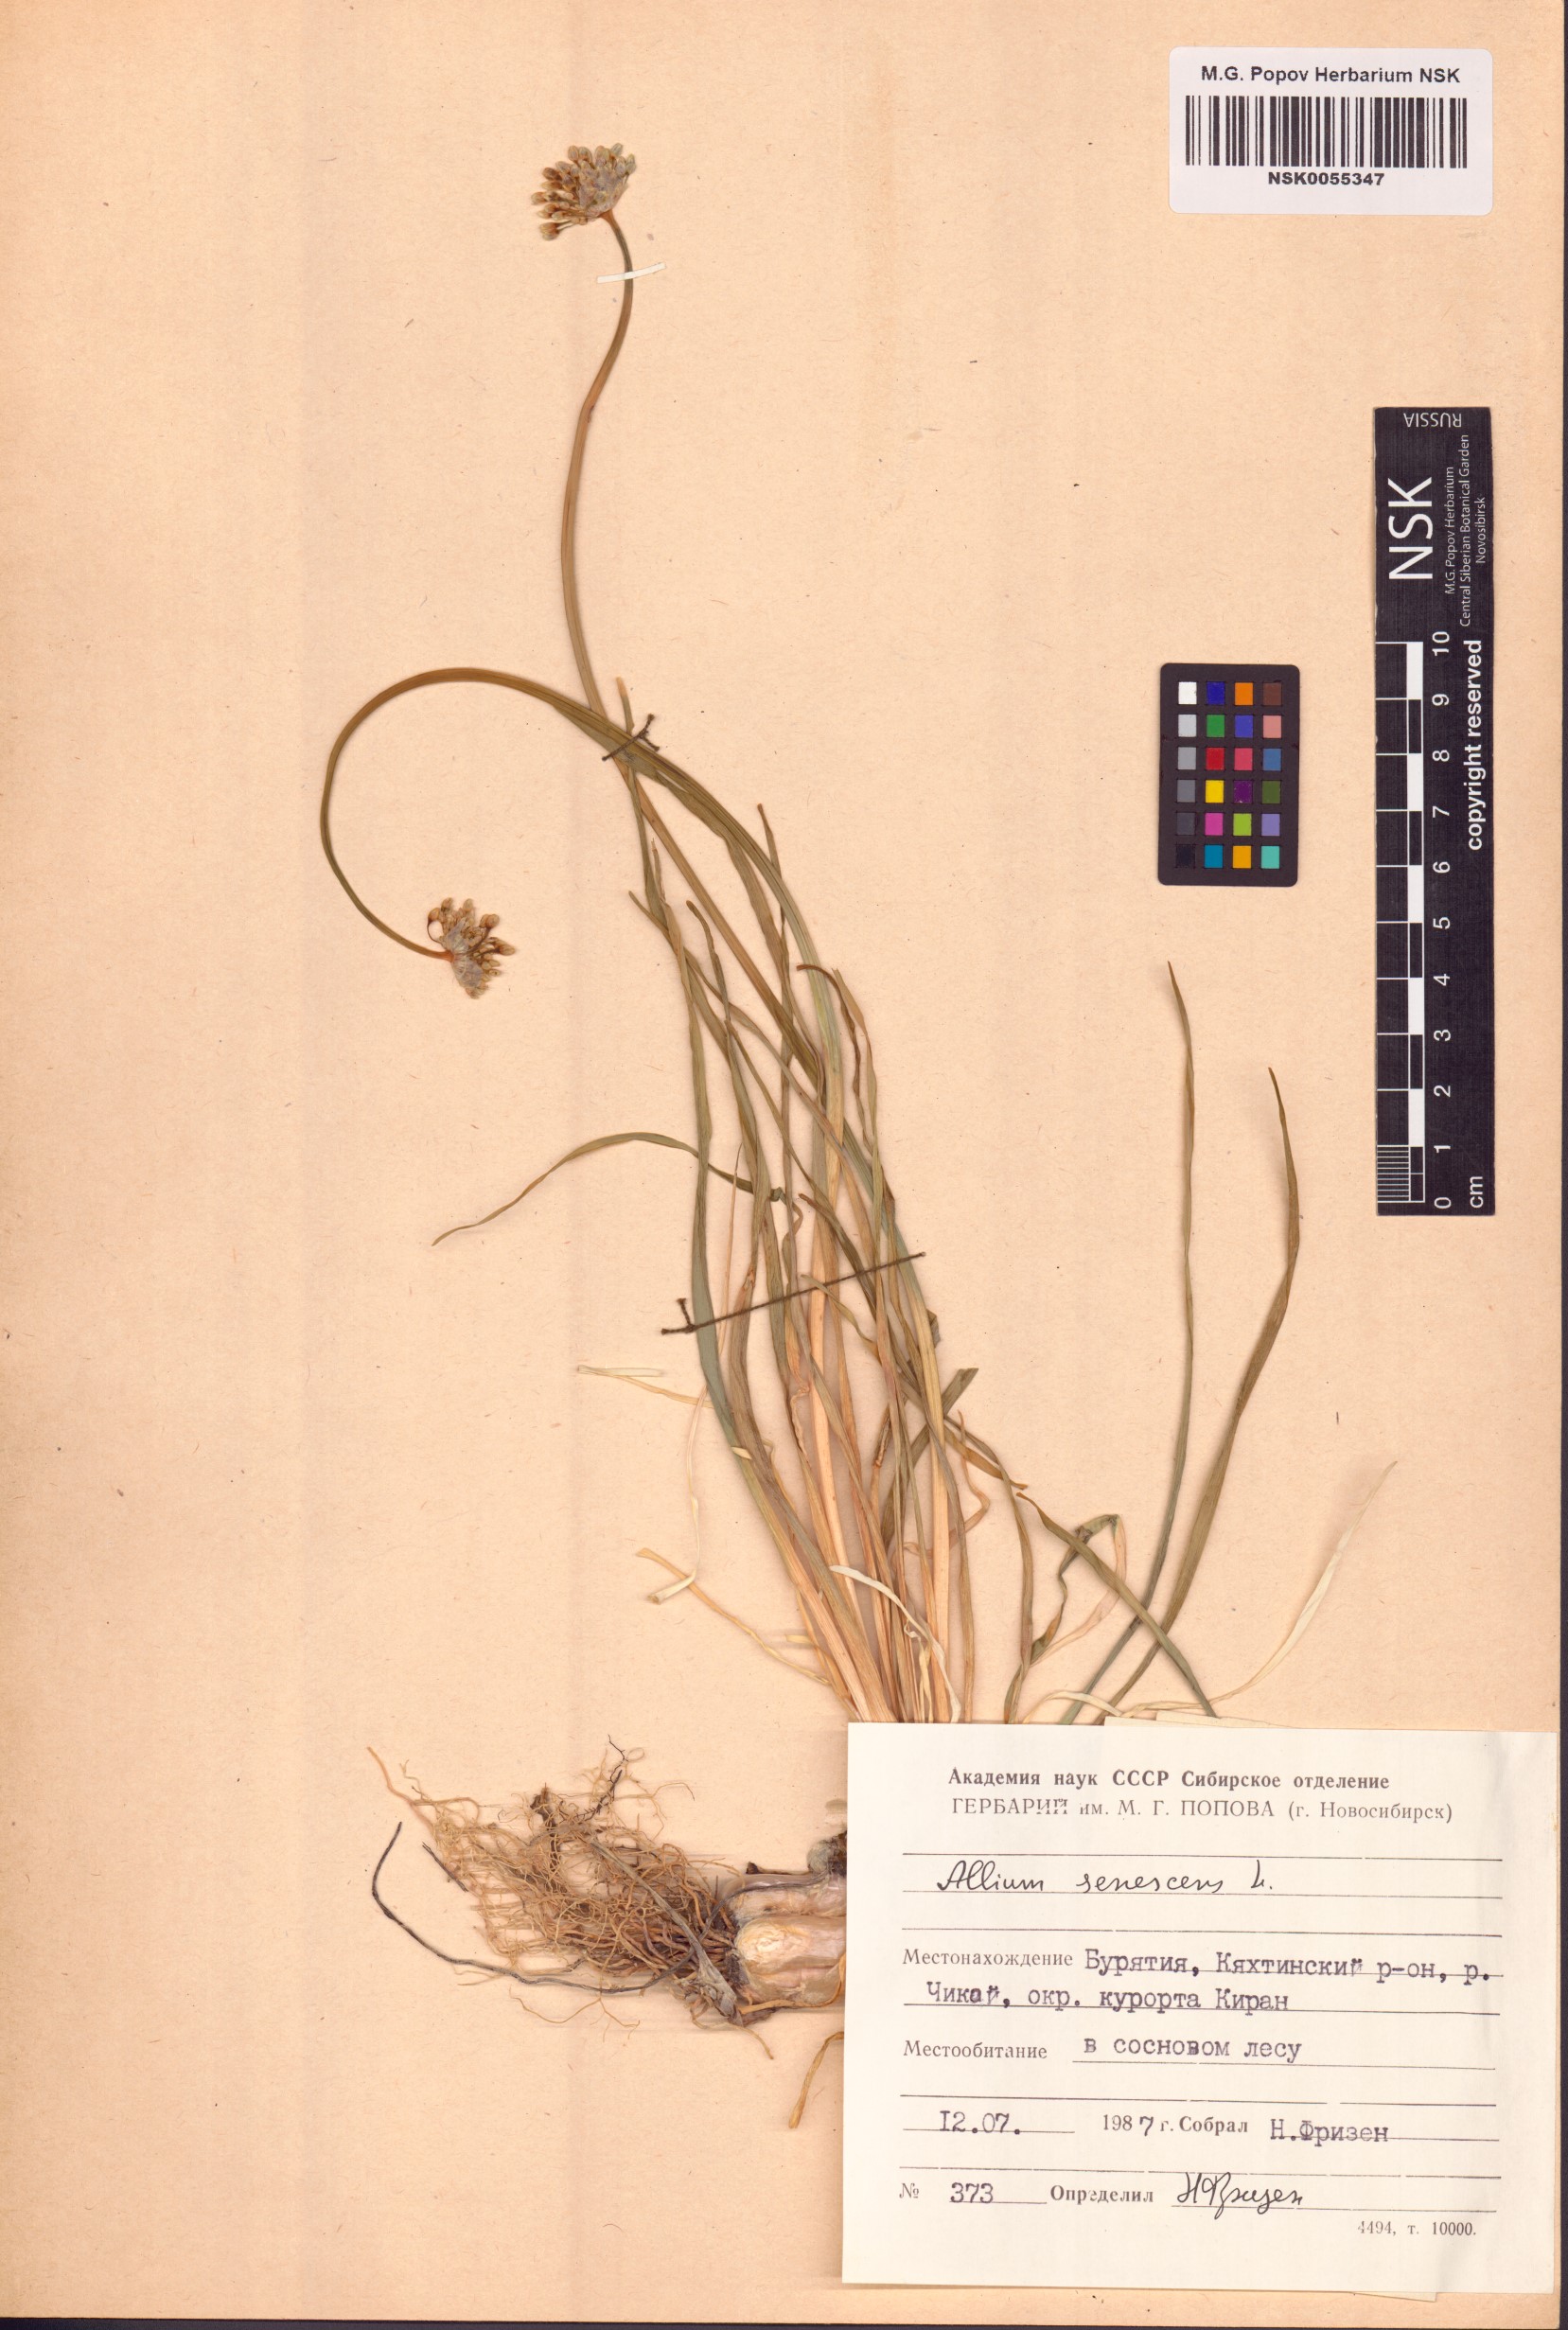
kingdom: Plantae
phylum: Tracheophyta
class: Liliopsida
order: Asparagales
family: Amaryllidaceae
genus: Allium
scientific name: Allium senescens
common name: German garlic
